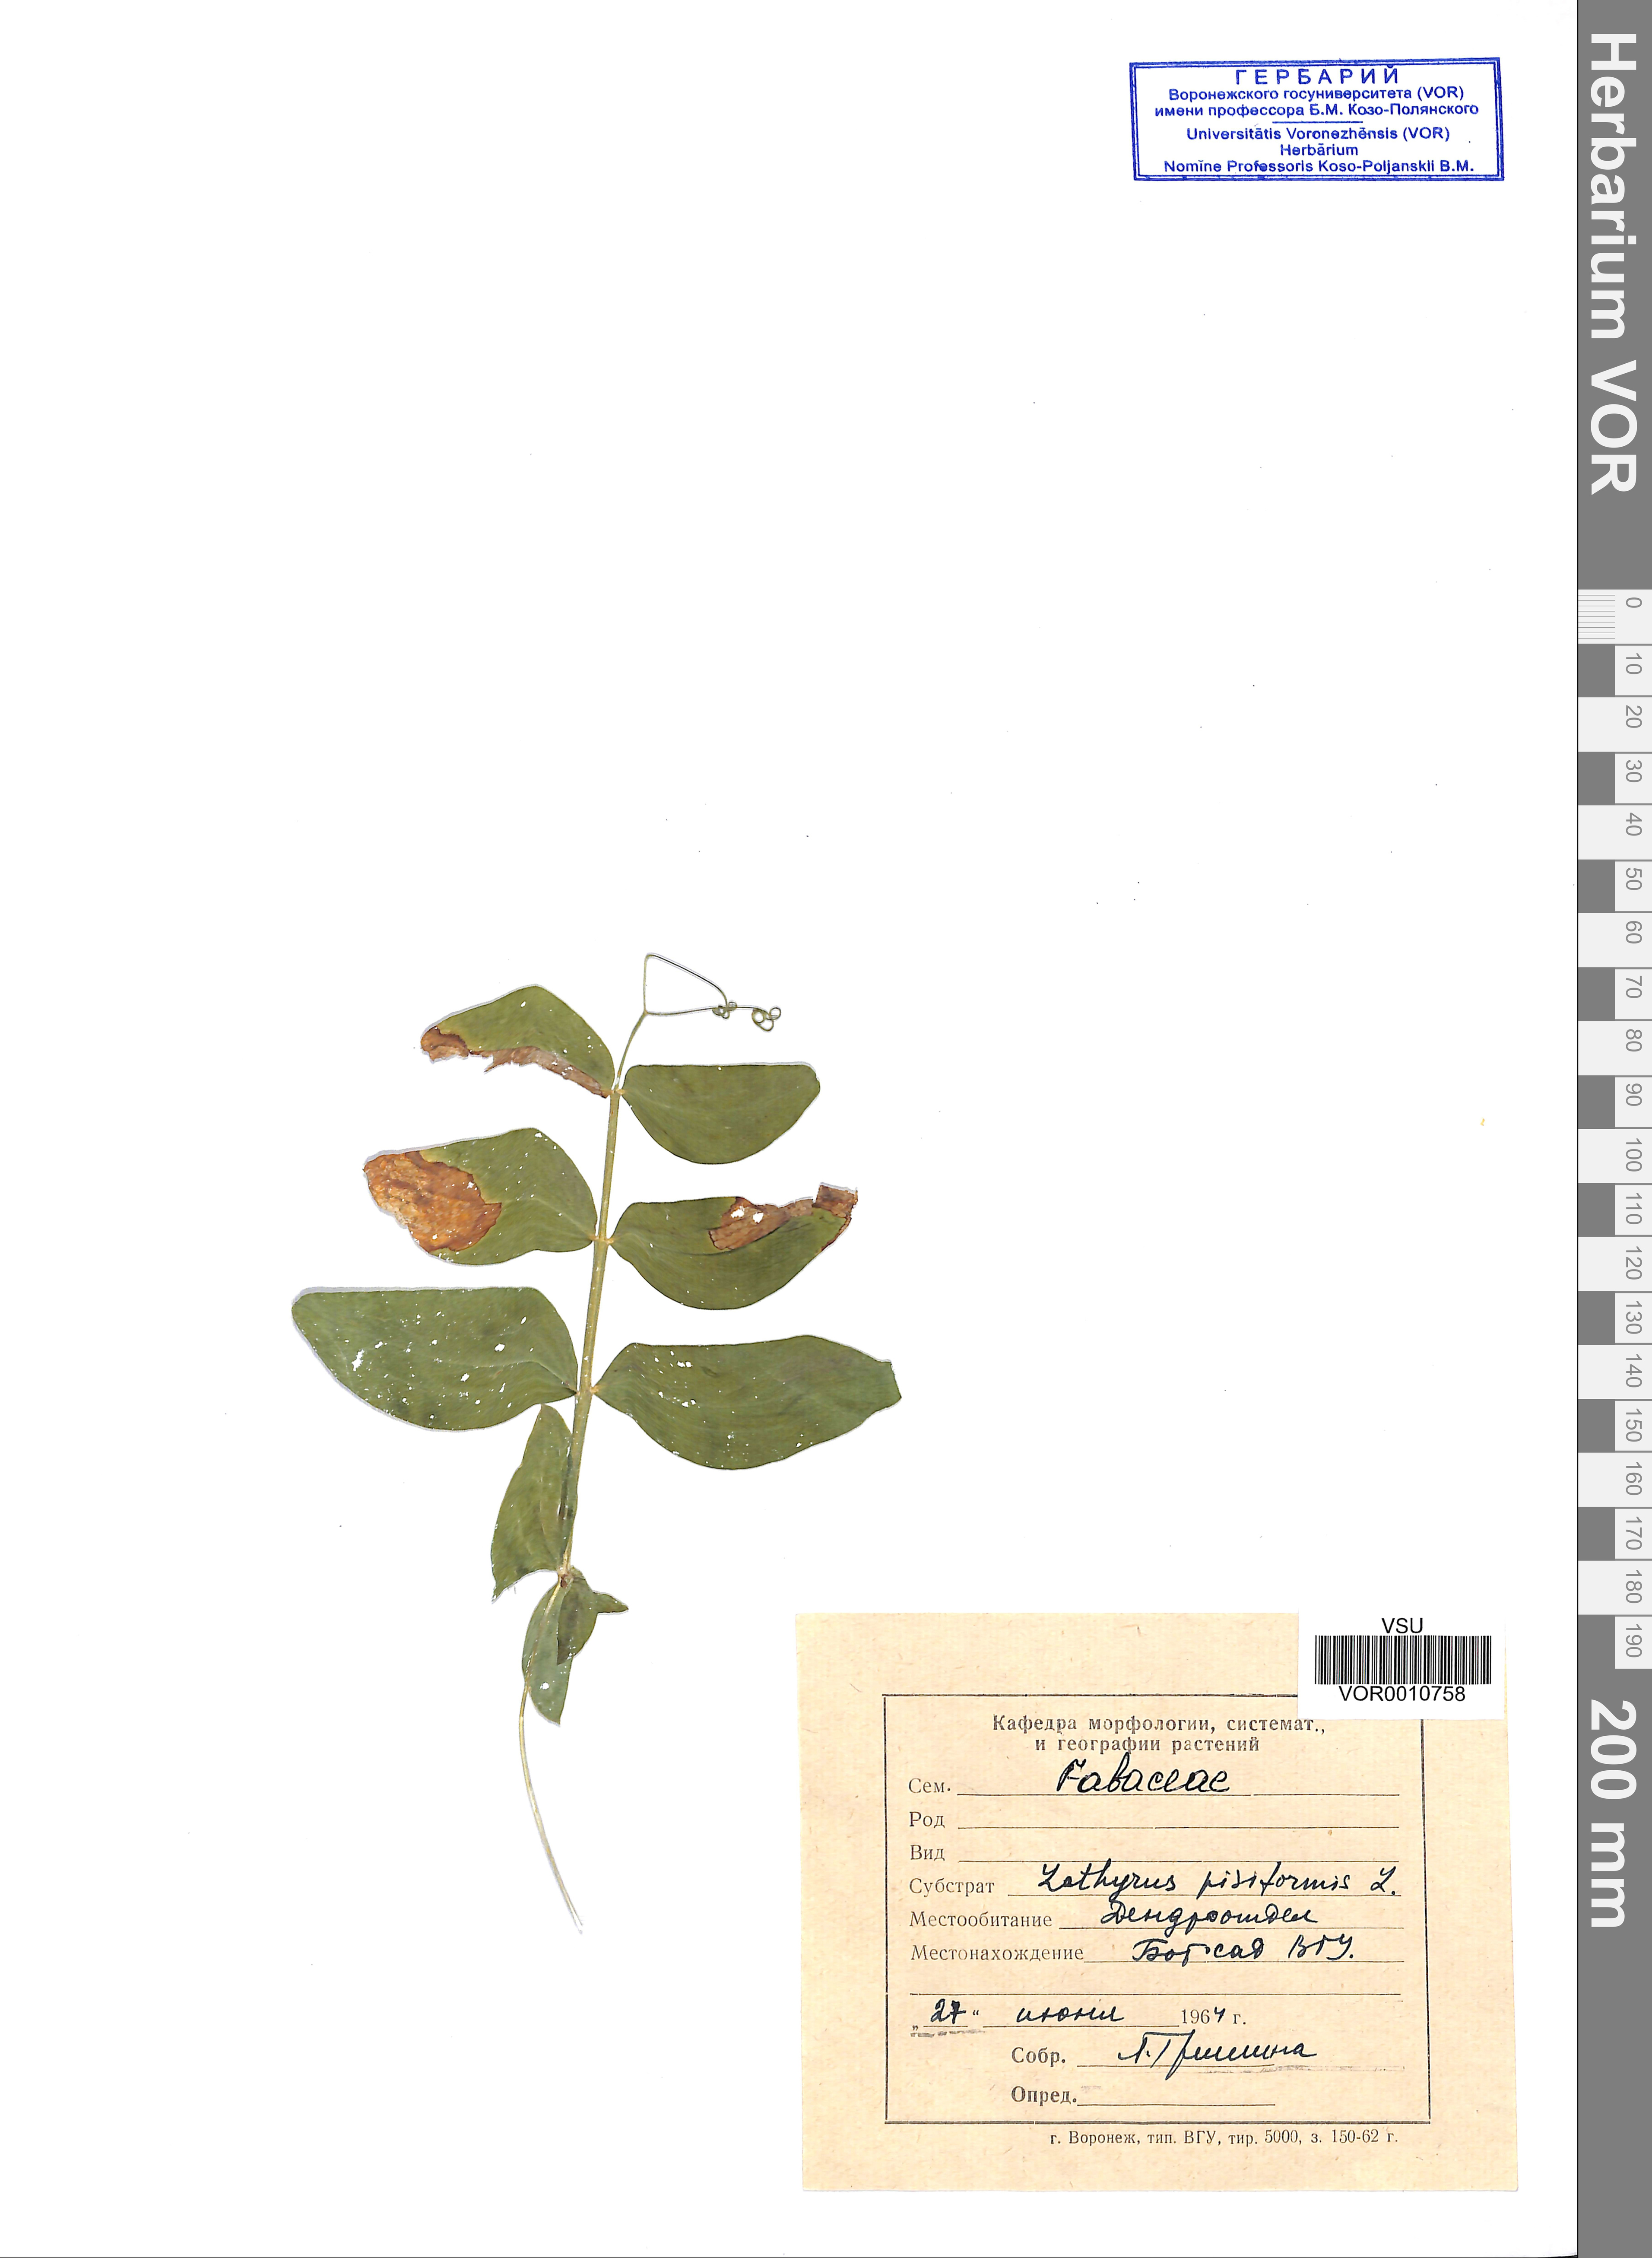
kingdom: Plantae
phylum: Tracheophyta
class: Magnoliopsida
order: Fabales
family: Fabaceae
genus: Lathyrus
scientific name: Lathyrus pisiformis
